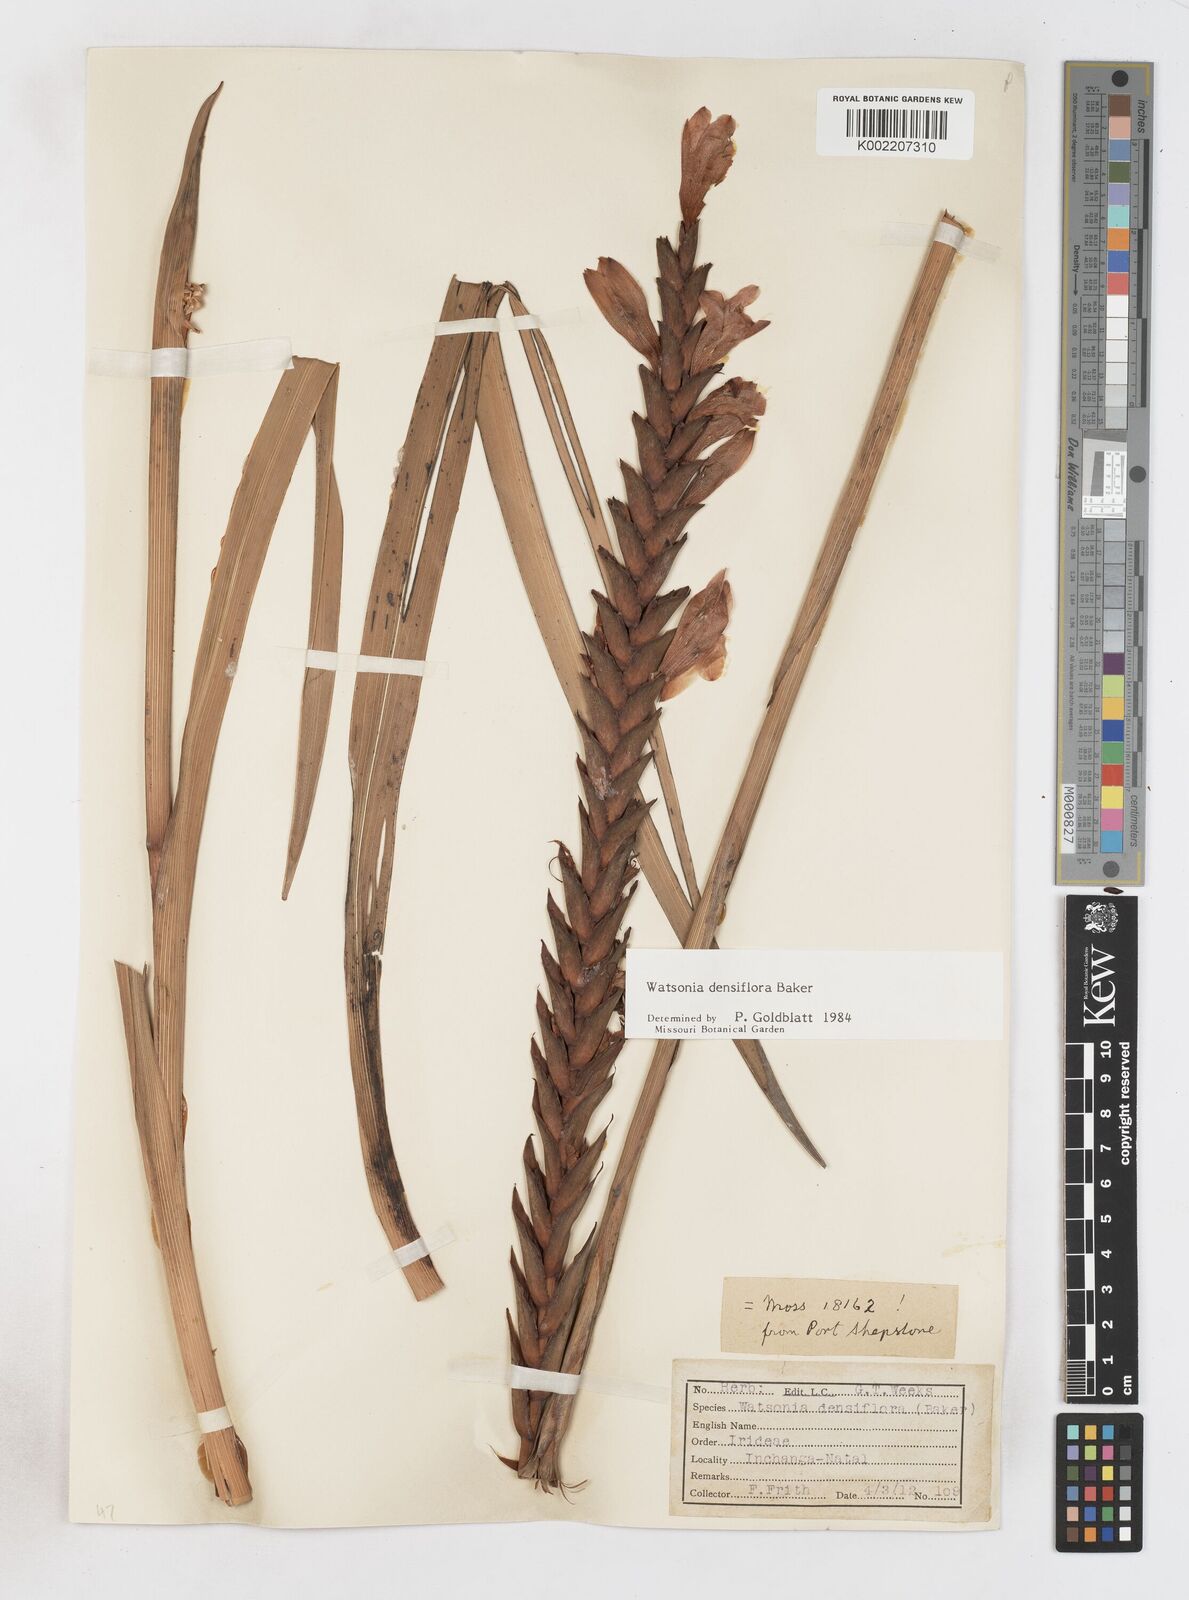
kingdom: Plantae
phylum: Tracheophyta
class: Liliopsida
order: Asparagales
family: Iridaceae
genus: Watsonia
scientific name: Watsonia densiflora
